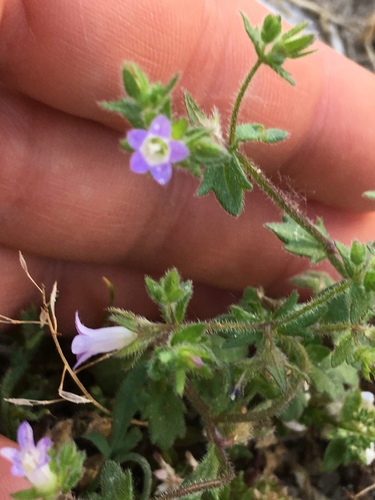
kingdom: Plantae
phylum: Tracheophyta
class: Magnoliopsida
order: Asterales
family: Campanulaceae
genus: Campanula
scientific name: Campanula erinus
